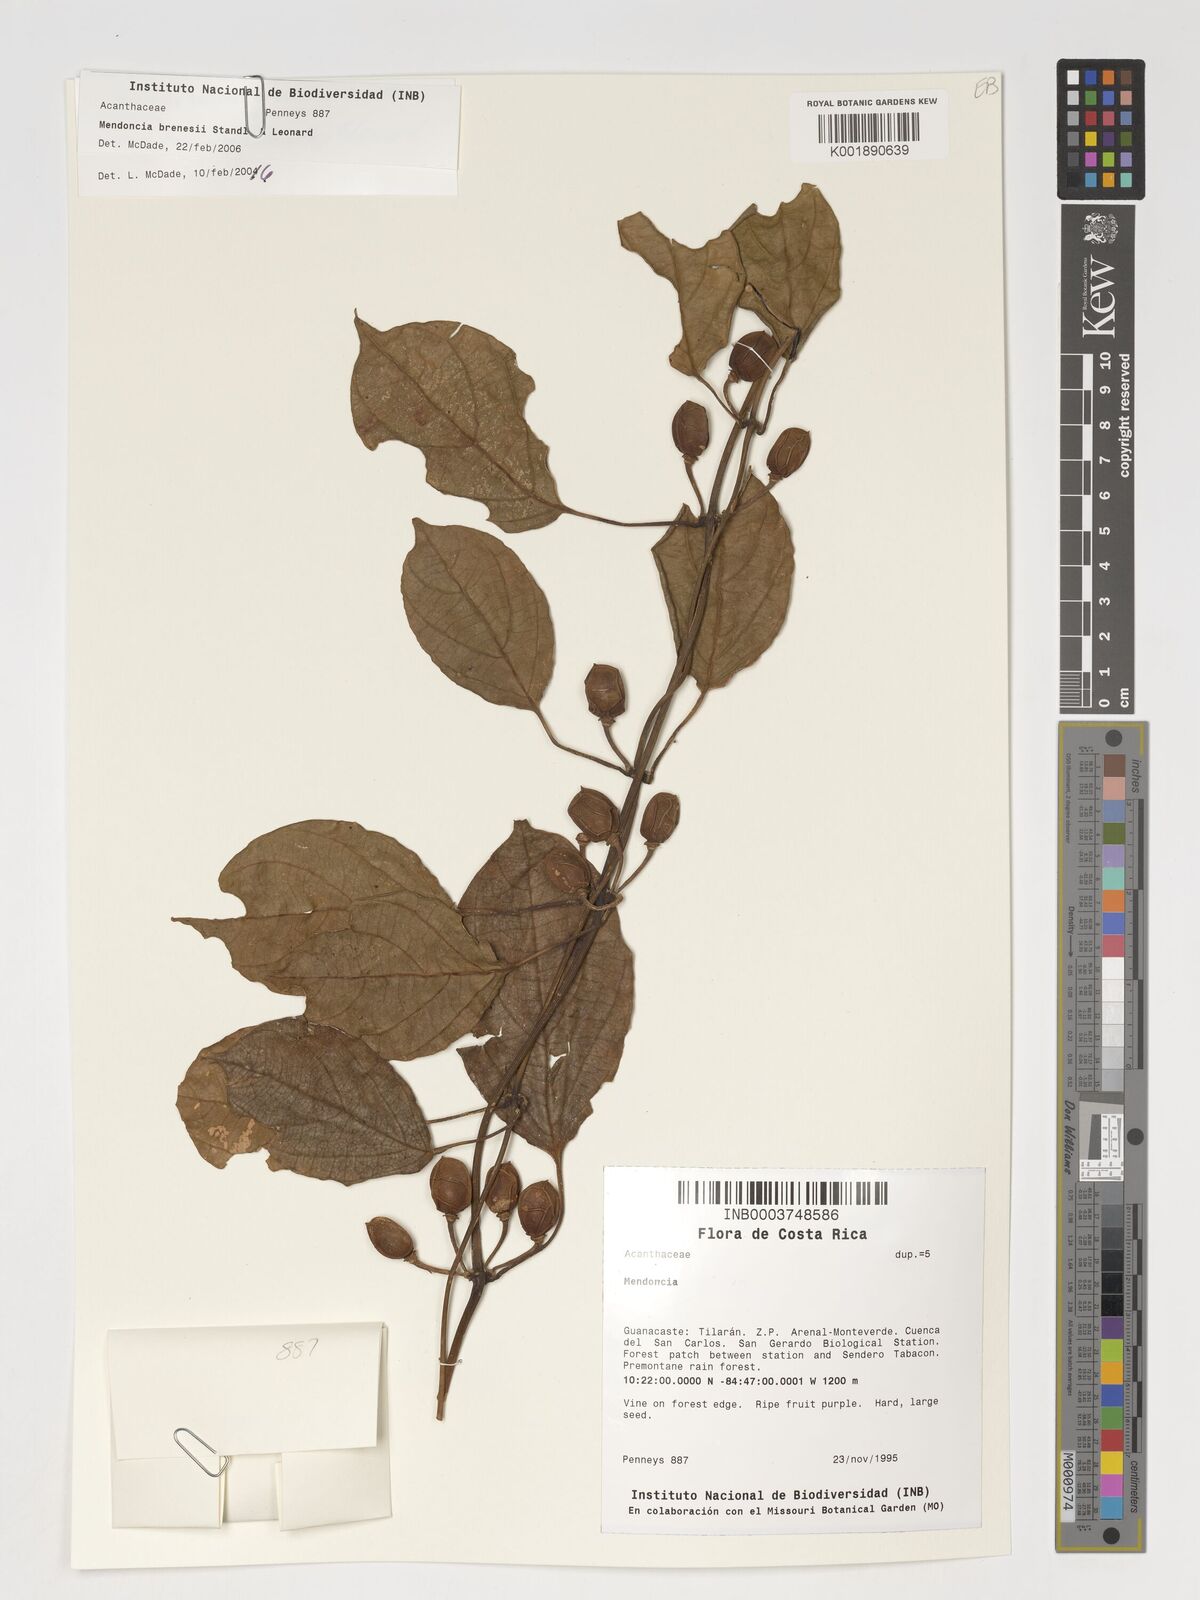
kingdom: Plantae
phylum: Tracheophyta
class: Magnoliopsida
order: Lamiales
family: Acanthaceae
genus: Mendoncia
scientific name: Mendoncia brenesii
